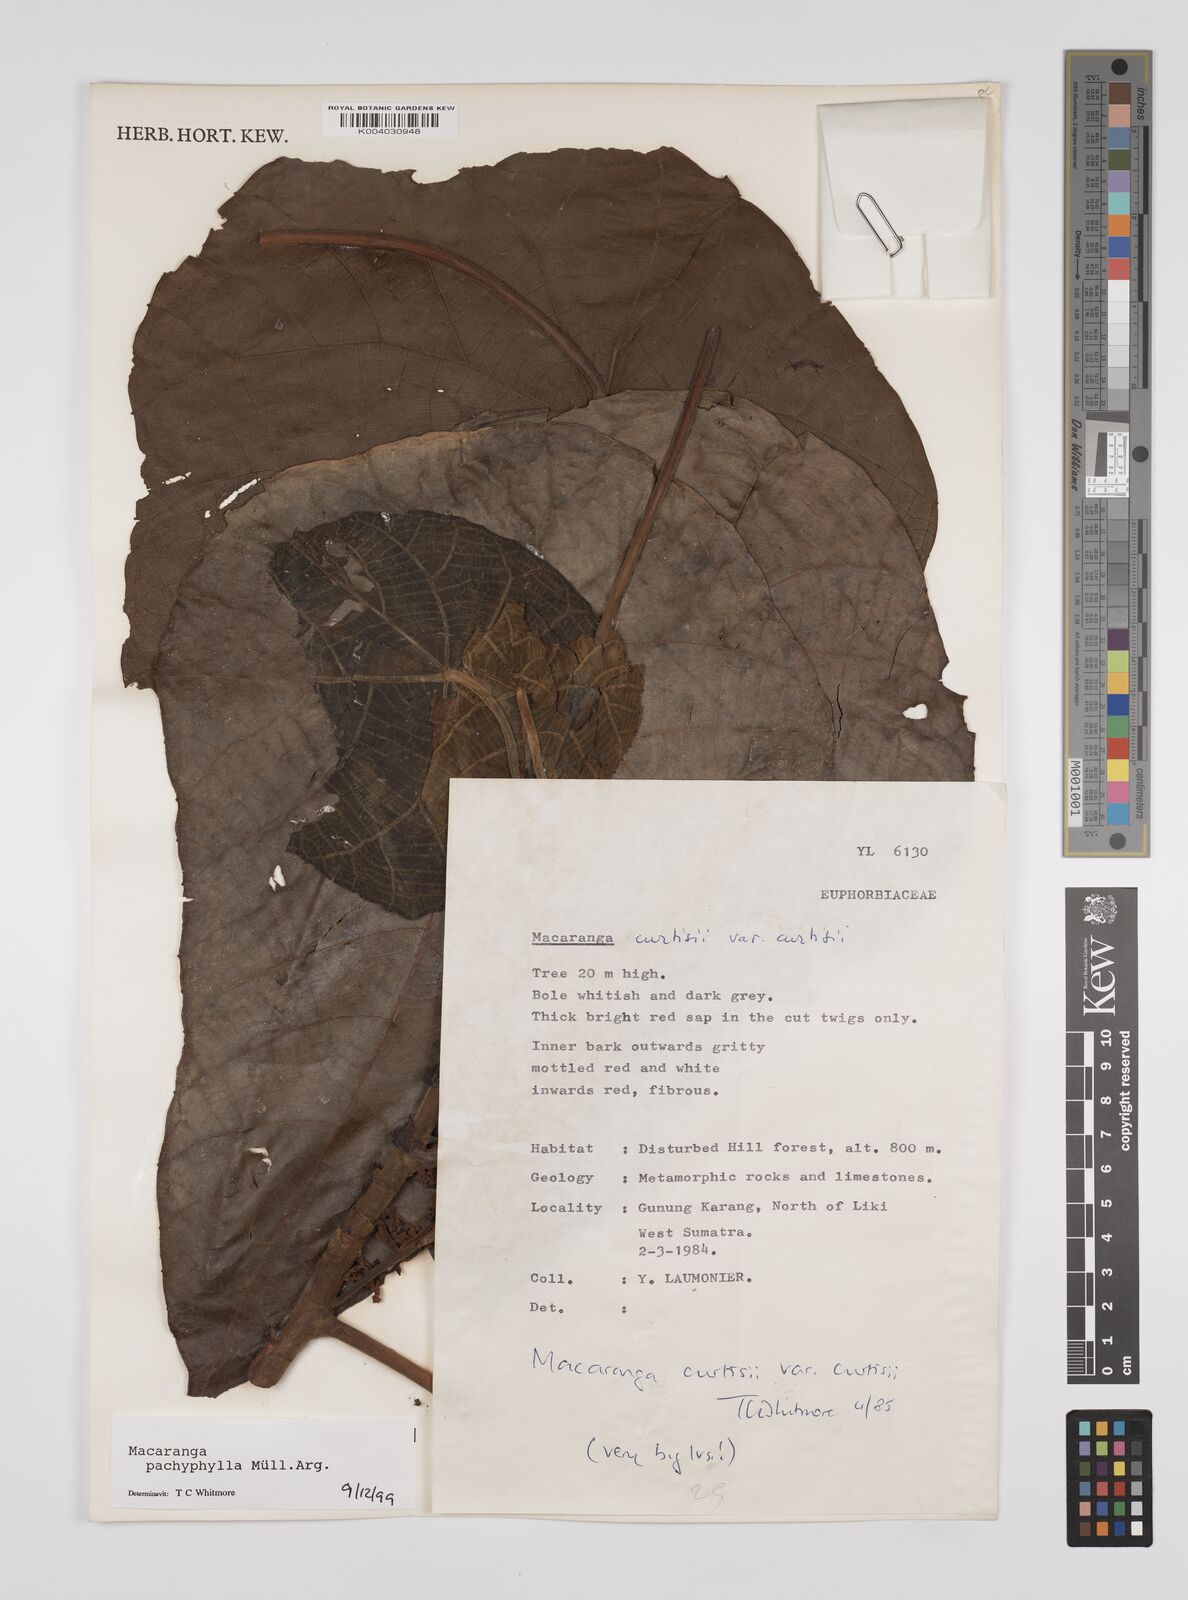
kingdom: Plantae
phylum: Tracheophyta
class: Magnoliopsida
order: Malpighiales
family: Euphorbiaceae
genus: Macaranga
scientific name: Macaranga pachyphylla
